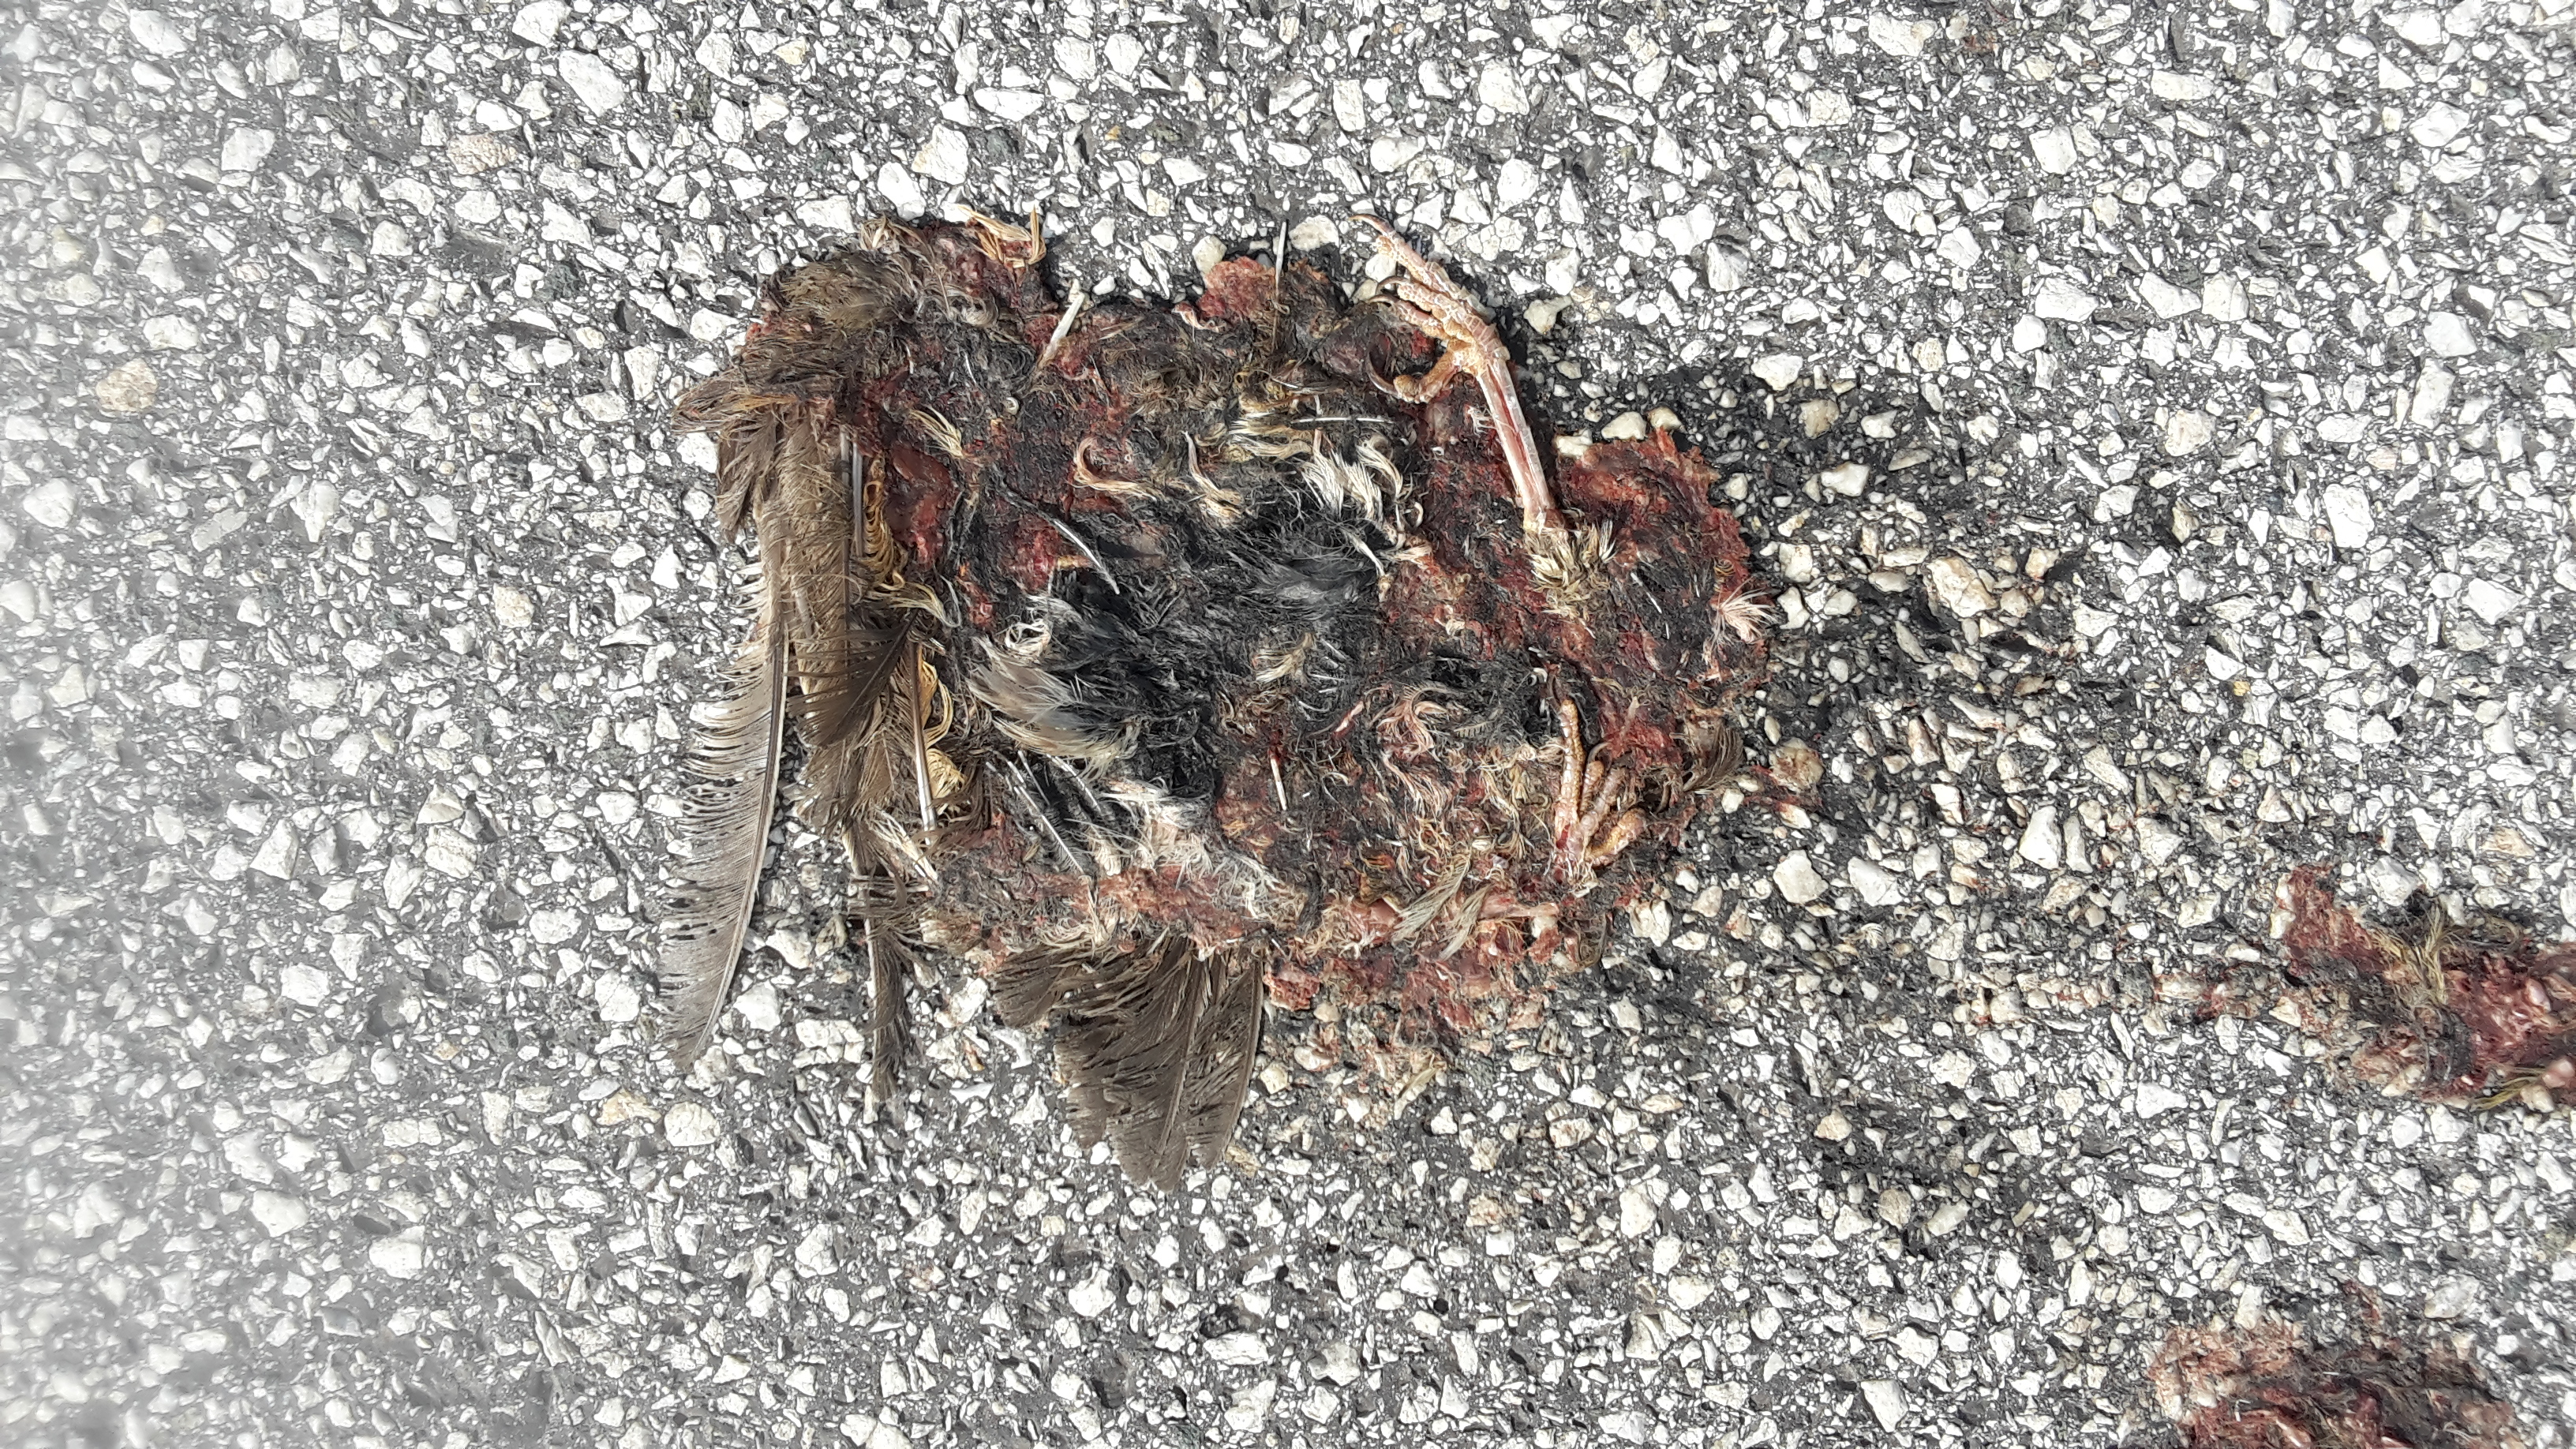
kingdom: Animalia
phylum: Chordata
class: Aves
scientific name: Aves
